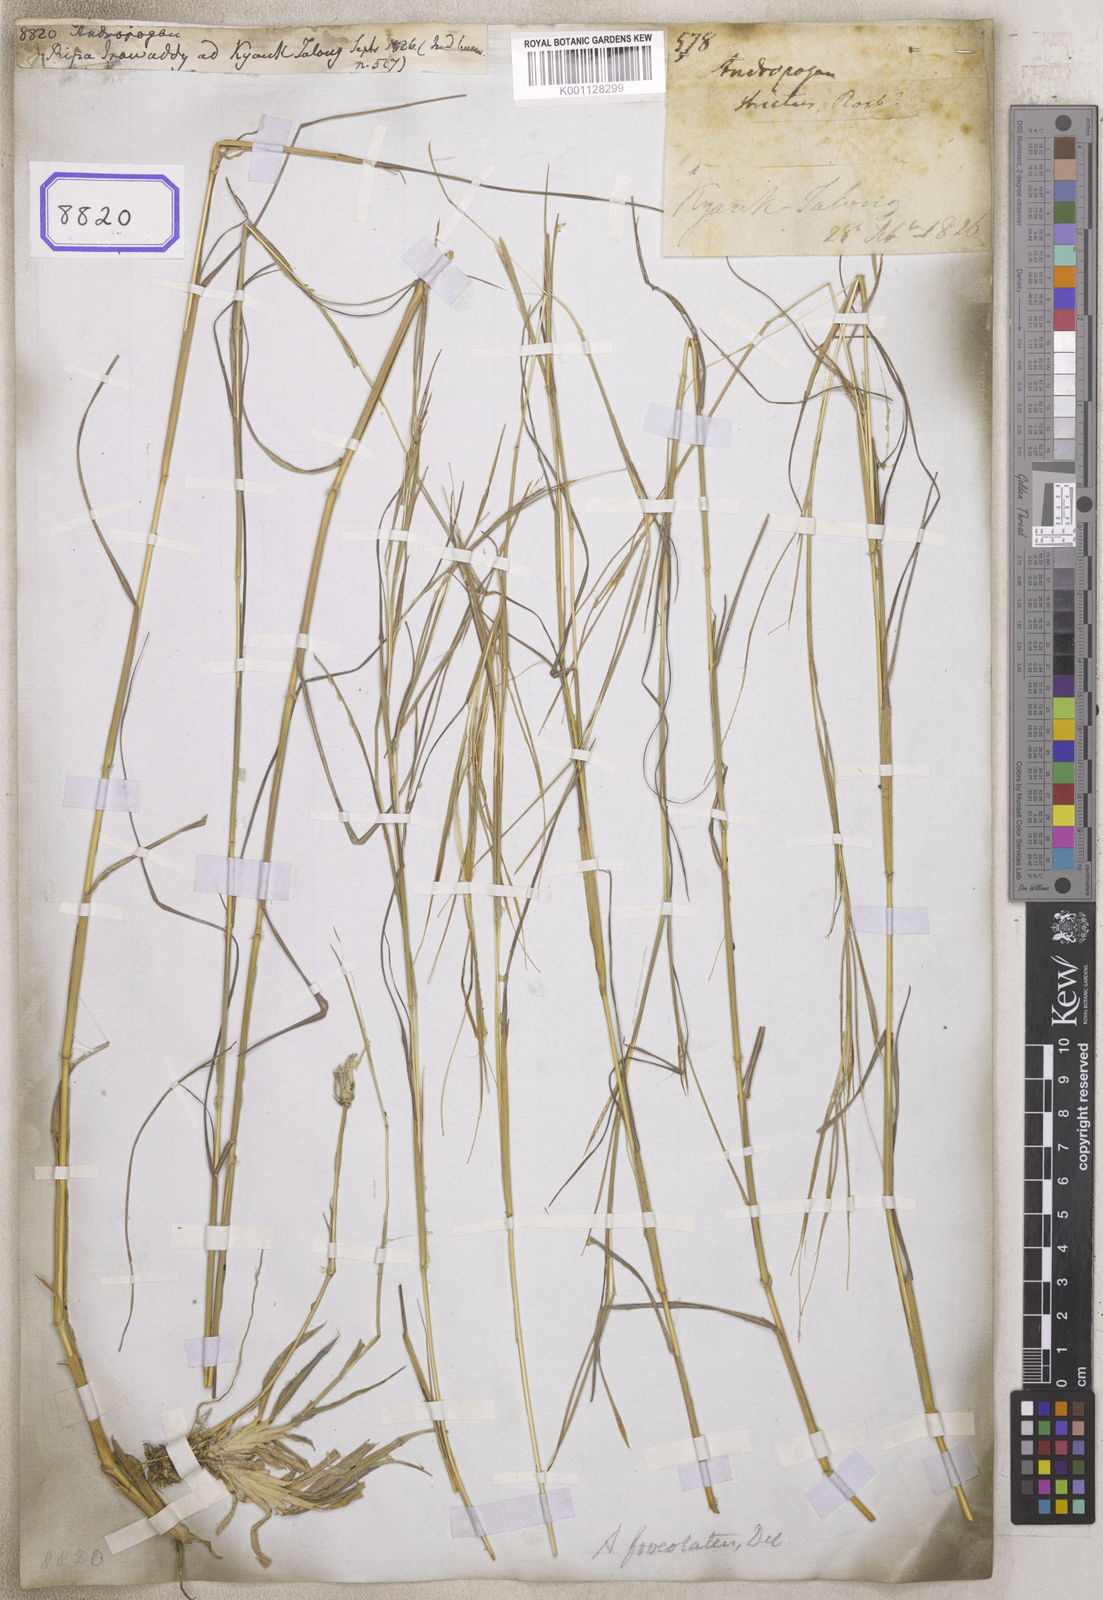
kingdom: Plantae
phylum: Tracheophyta
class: Liliopsida
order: Poales
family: Poaceae
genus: Andropogon
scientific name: Andropogon
